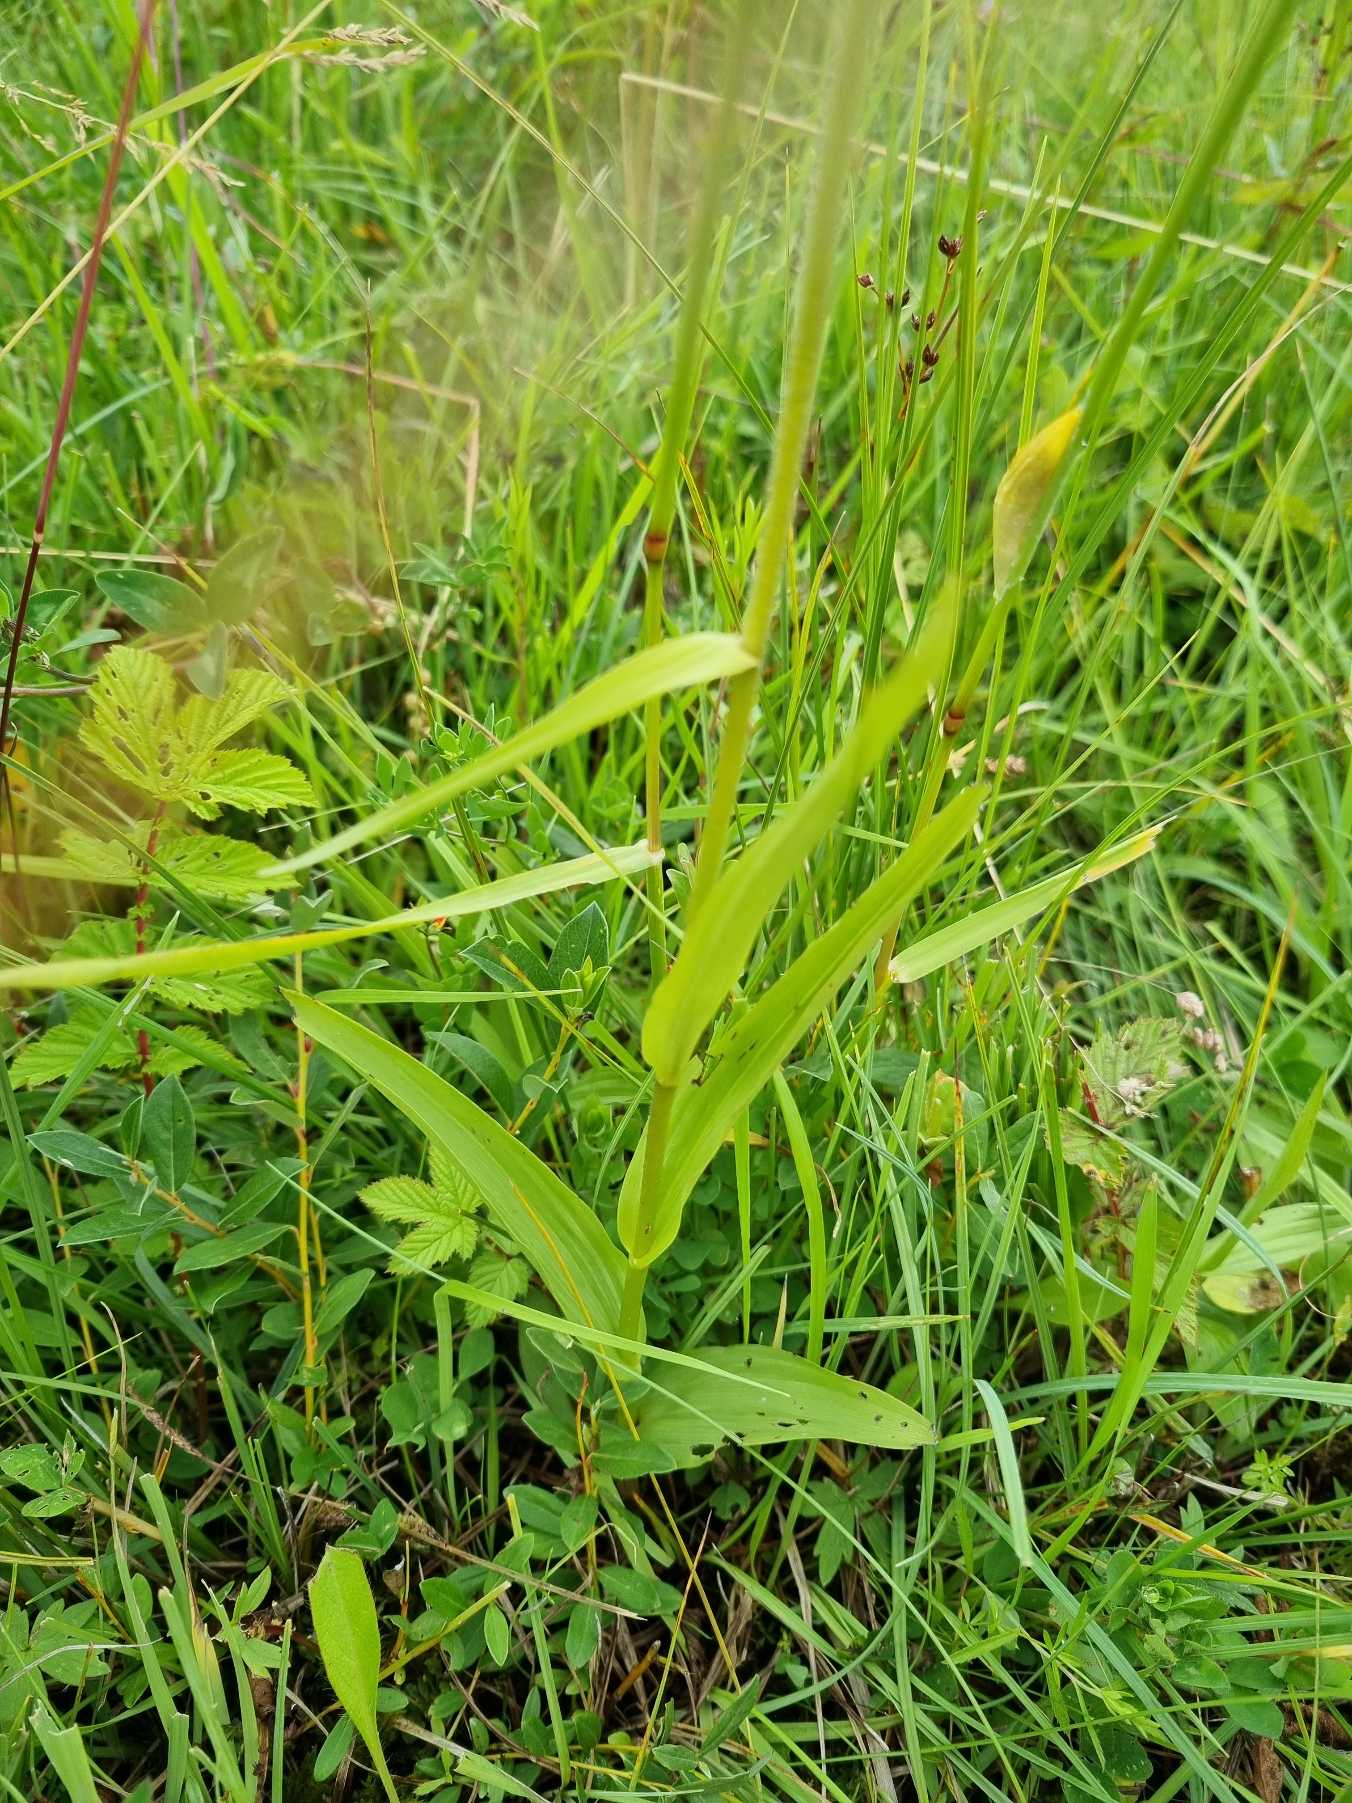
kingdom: Plantae
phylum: Tracheophyta
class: Liliopsida
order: Asparagales
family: Orchidaceae
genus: Epipactis
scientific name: Epipactis palustris
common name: Sump-hullæbe
